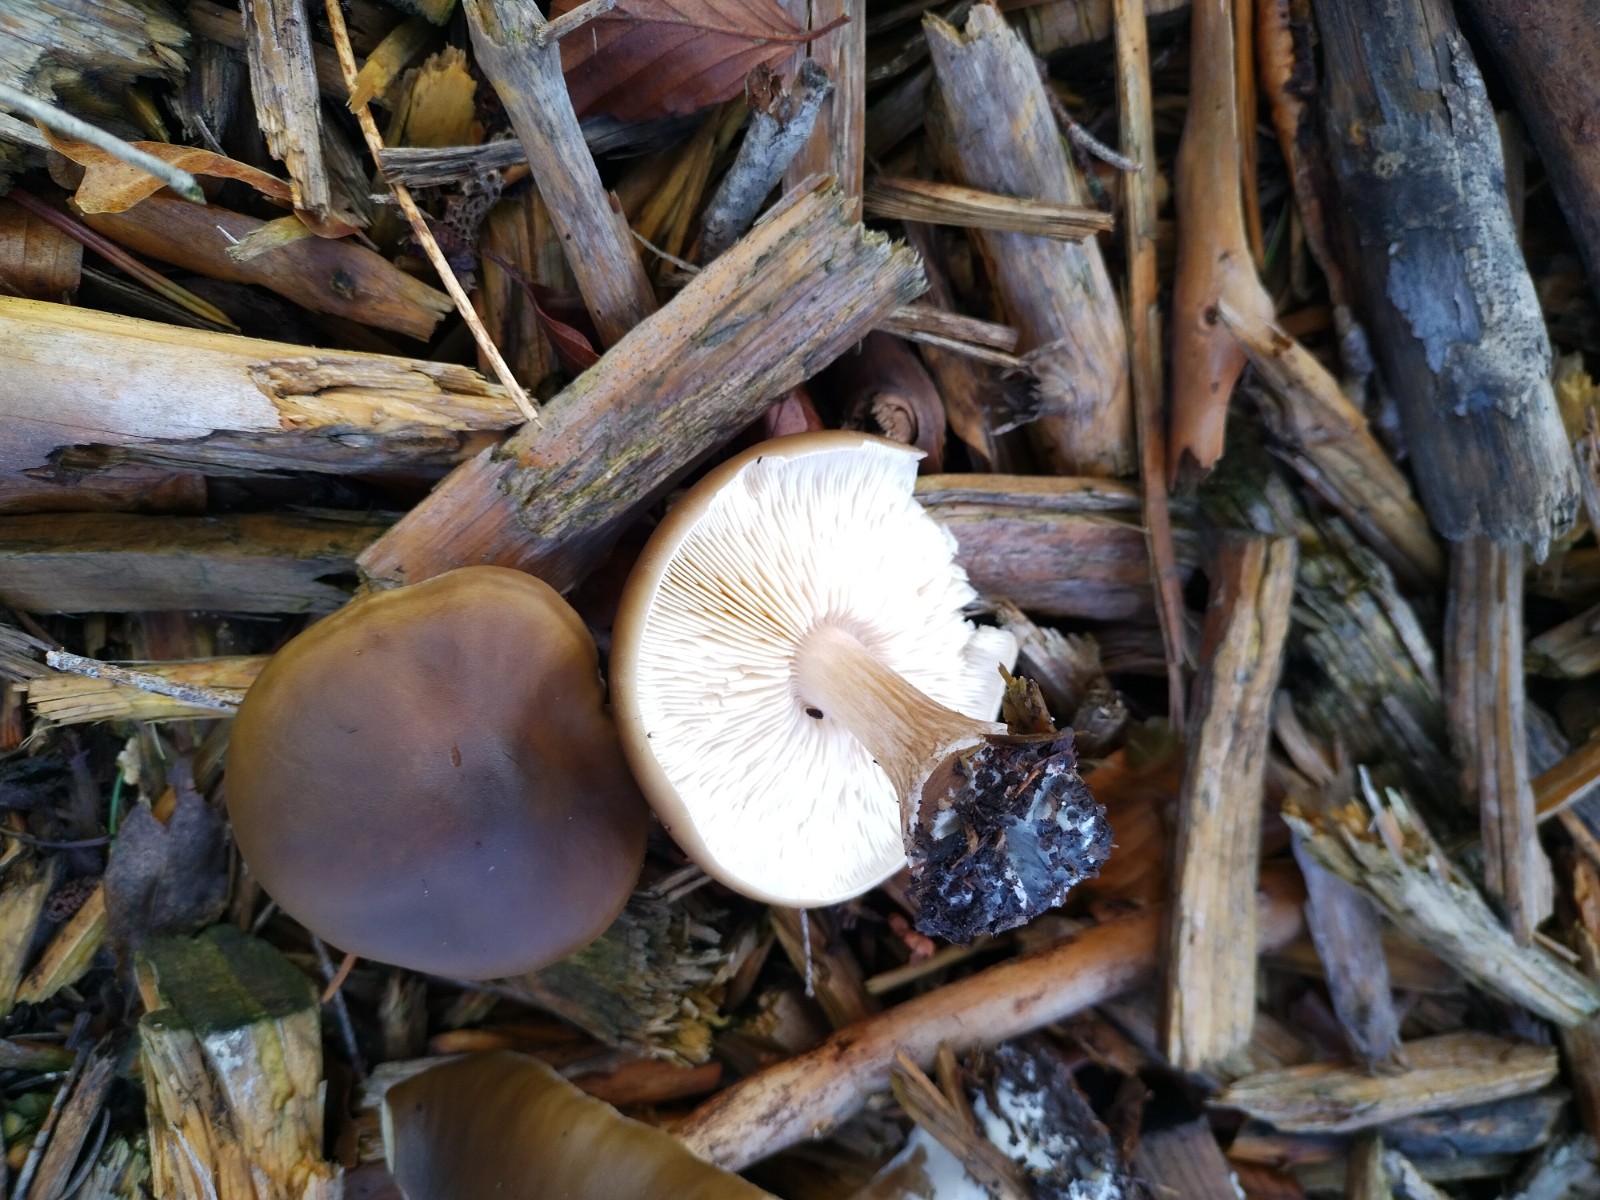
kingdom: Fungi
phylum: Basidiomycota
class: Agaricomycetes
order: Agaricales
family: Tricholomataceae
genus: Melanoleuca
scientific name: Melanoleuca
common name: munkehat
